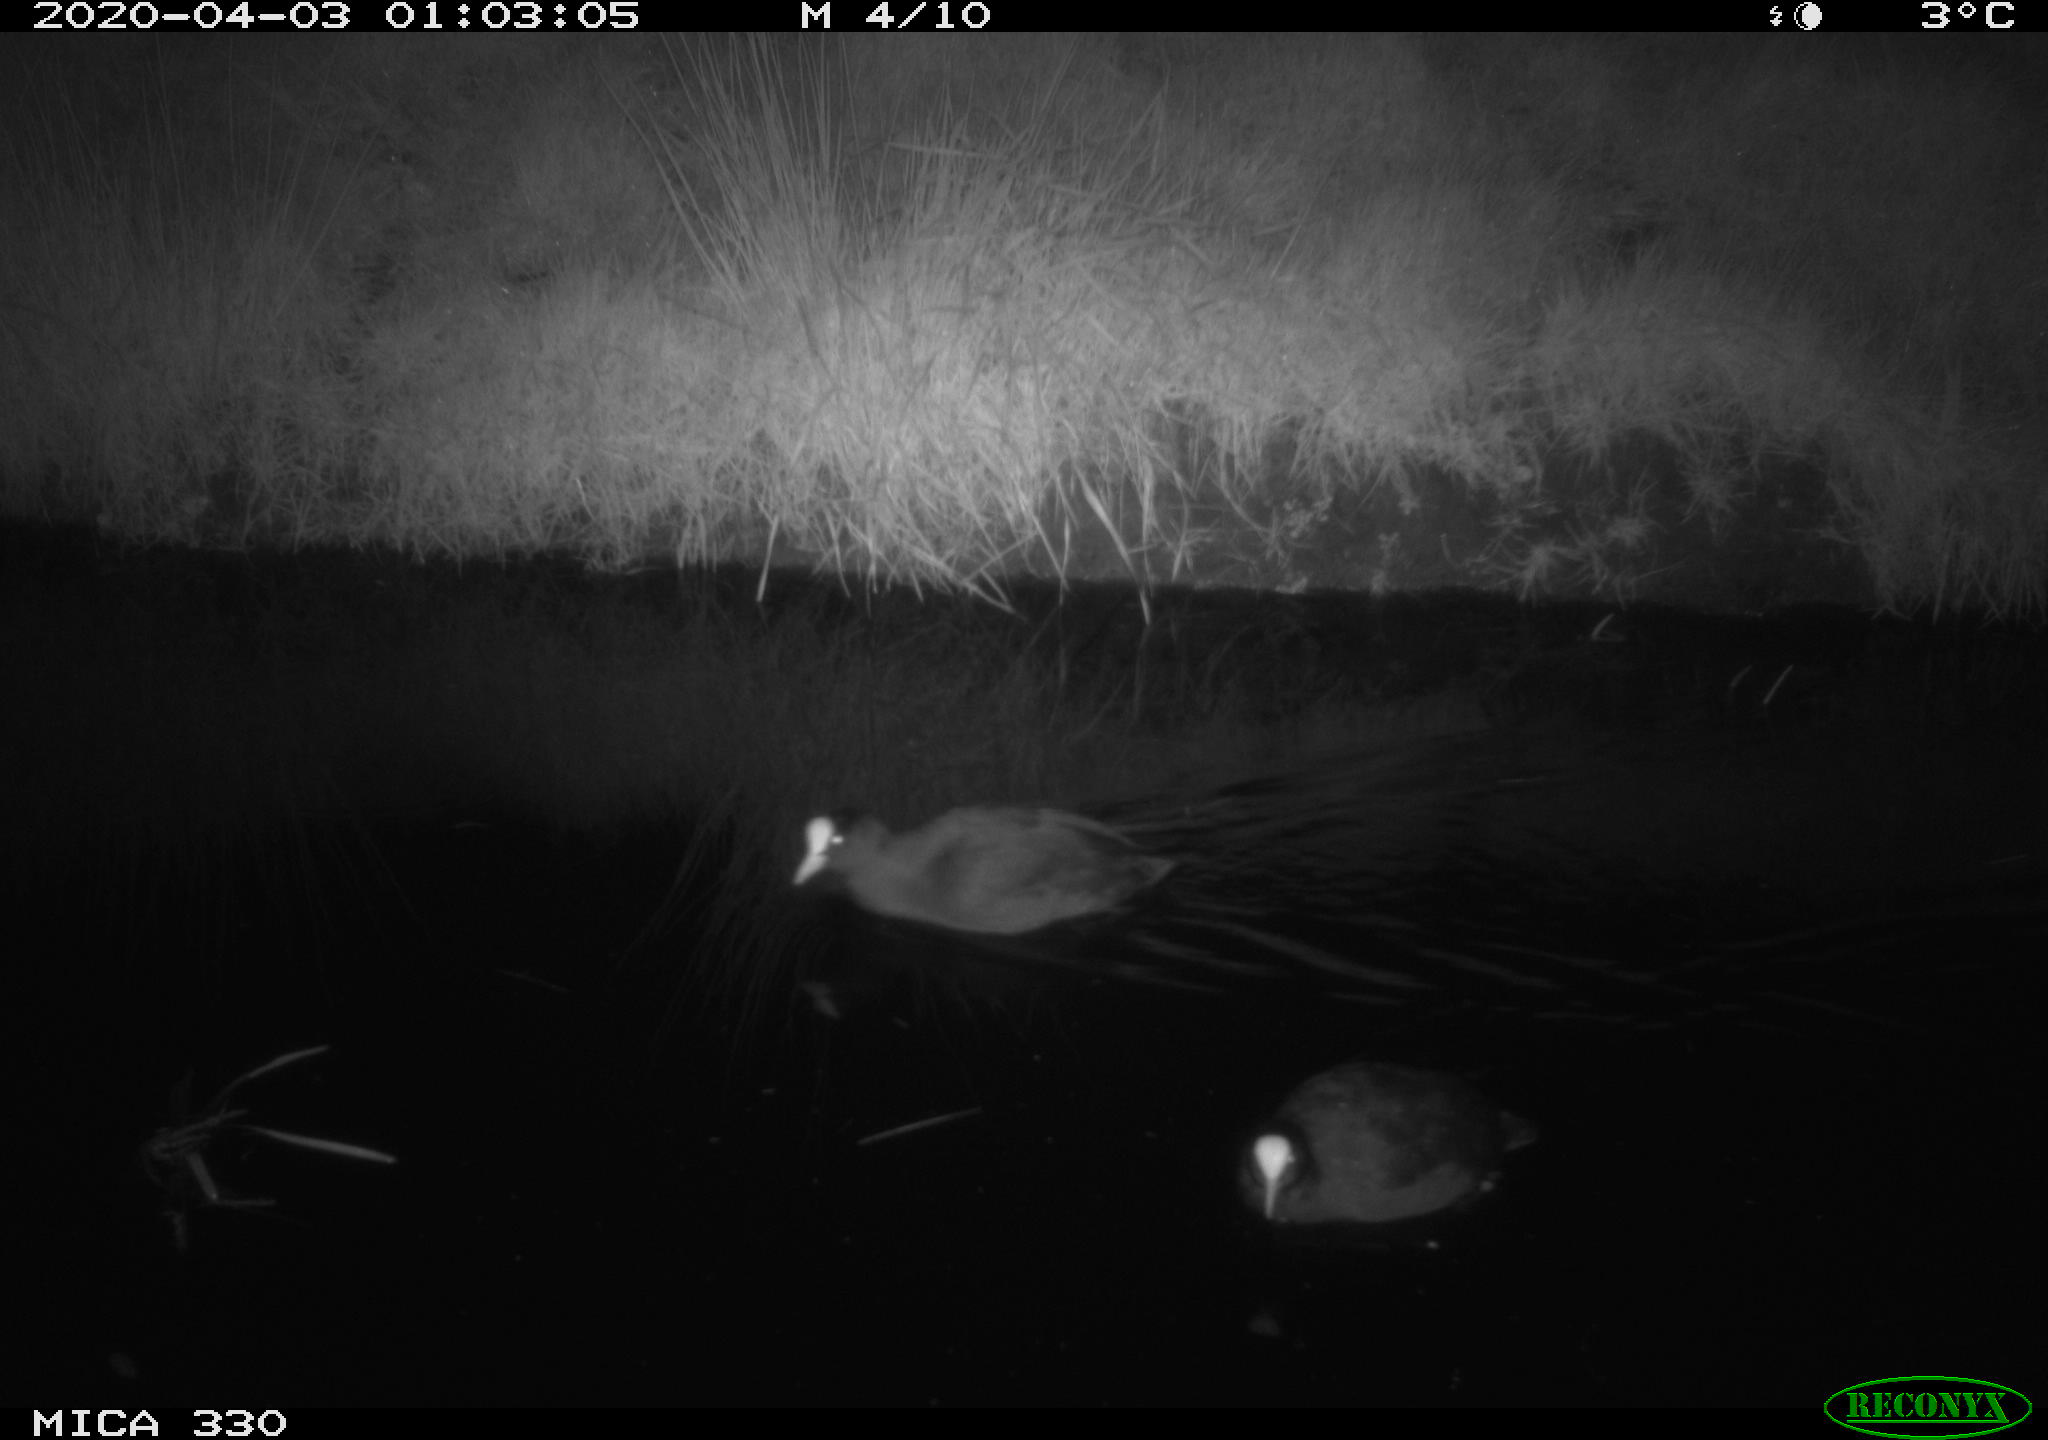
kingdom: Animalia
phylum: Chordata
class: Aves
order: Anseriformes
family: Anatidae
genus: Anas
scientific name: Anas platyrhynchos
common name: Mallard
